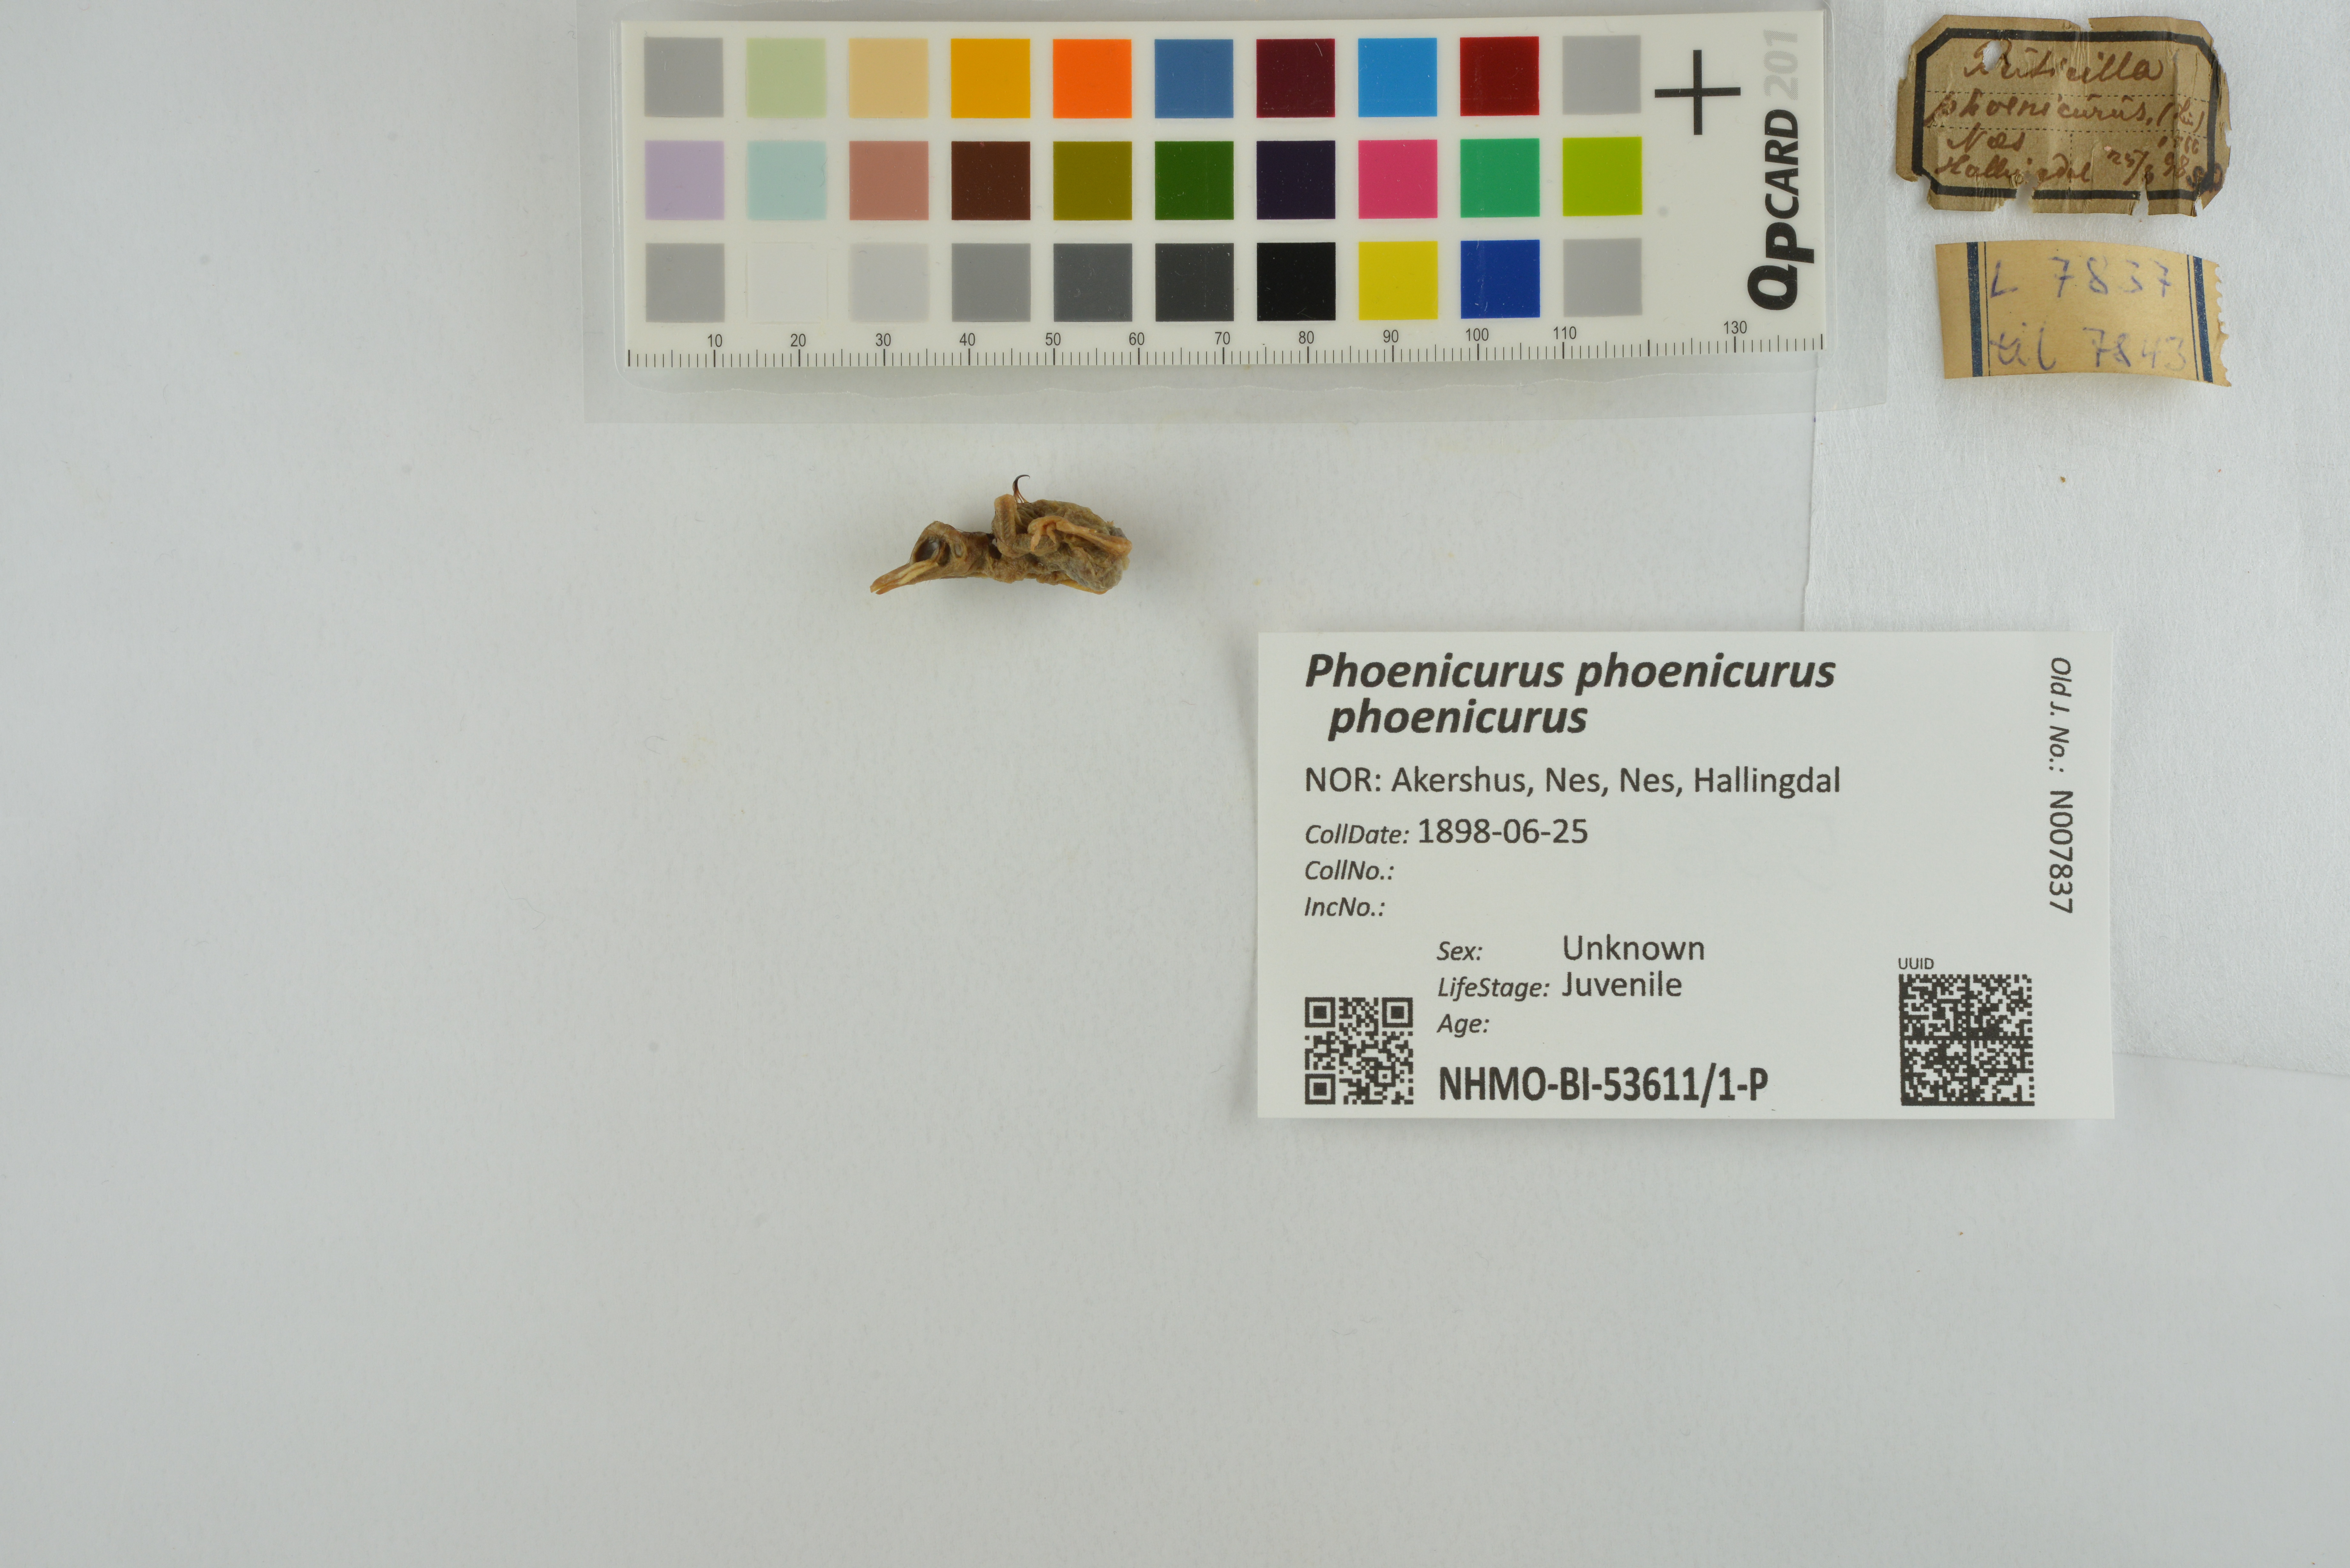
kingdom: Animalia
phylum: Chordata
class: Aves
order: Passeriformes
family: Muscicapidae
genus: Phoenicurus
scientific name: Phoenicurus phoenicurus
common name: Common redstart
